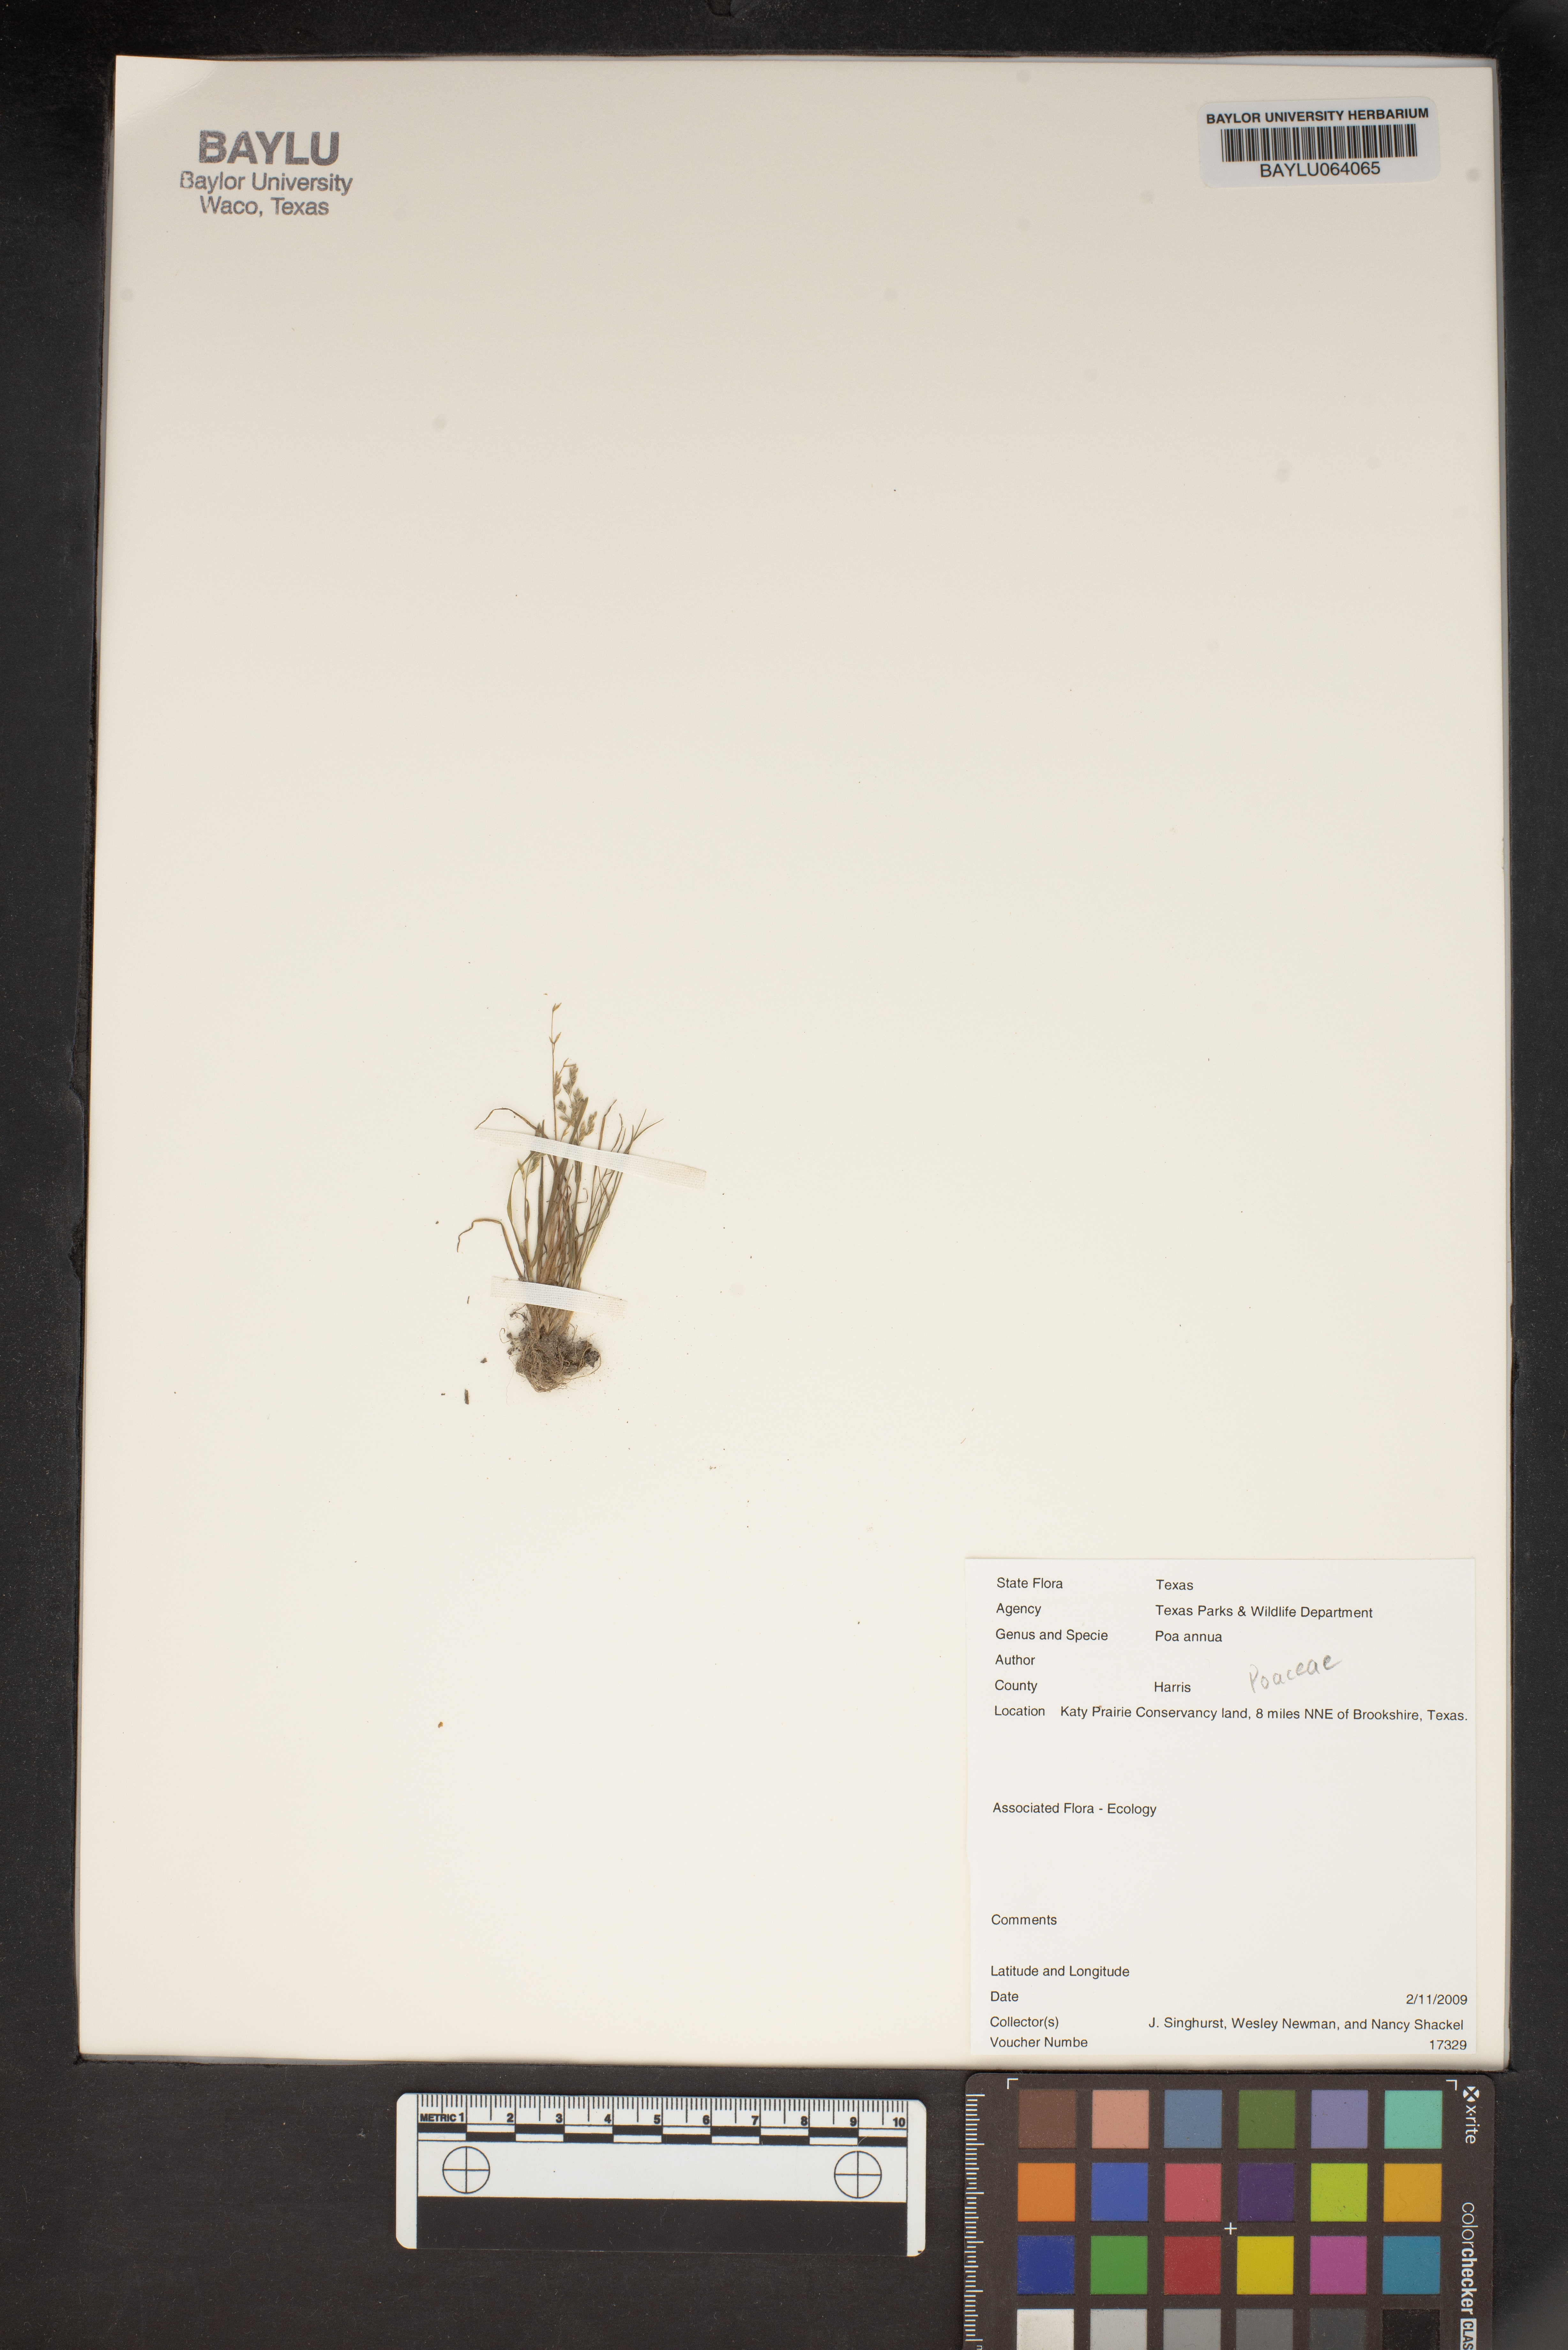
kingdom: Plantae
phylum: Tracheophyta
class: Liliopsida
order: Poales
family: Poaceae
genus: Poa
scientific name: Poa annua
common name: Annual bluegrass
